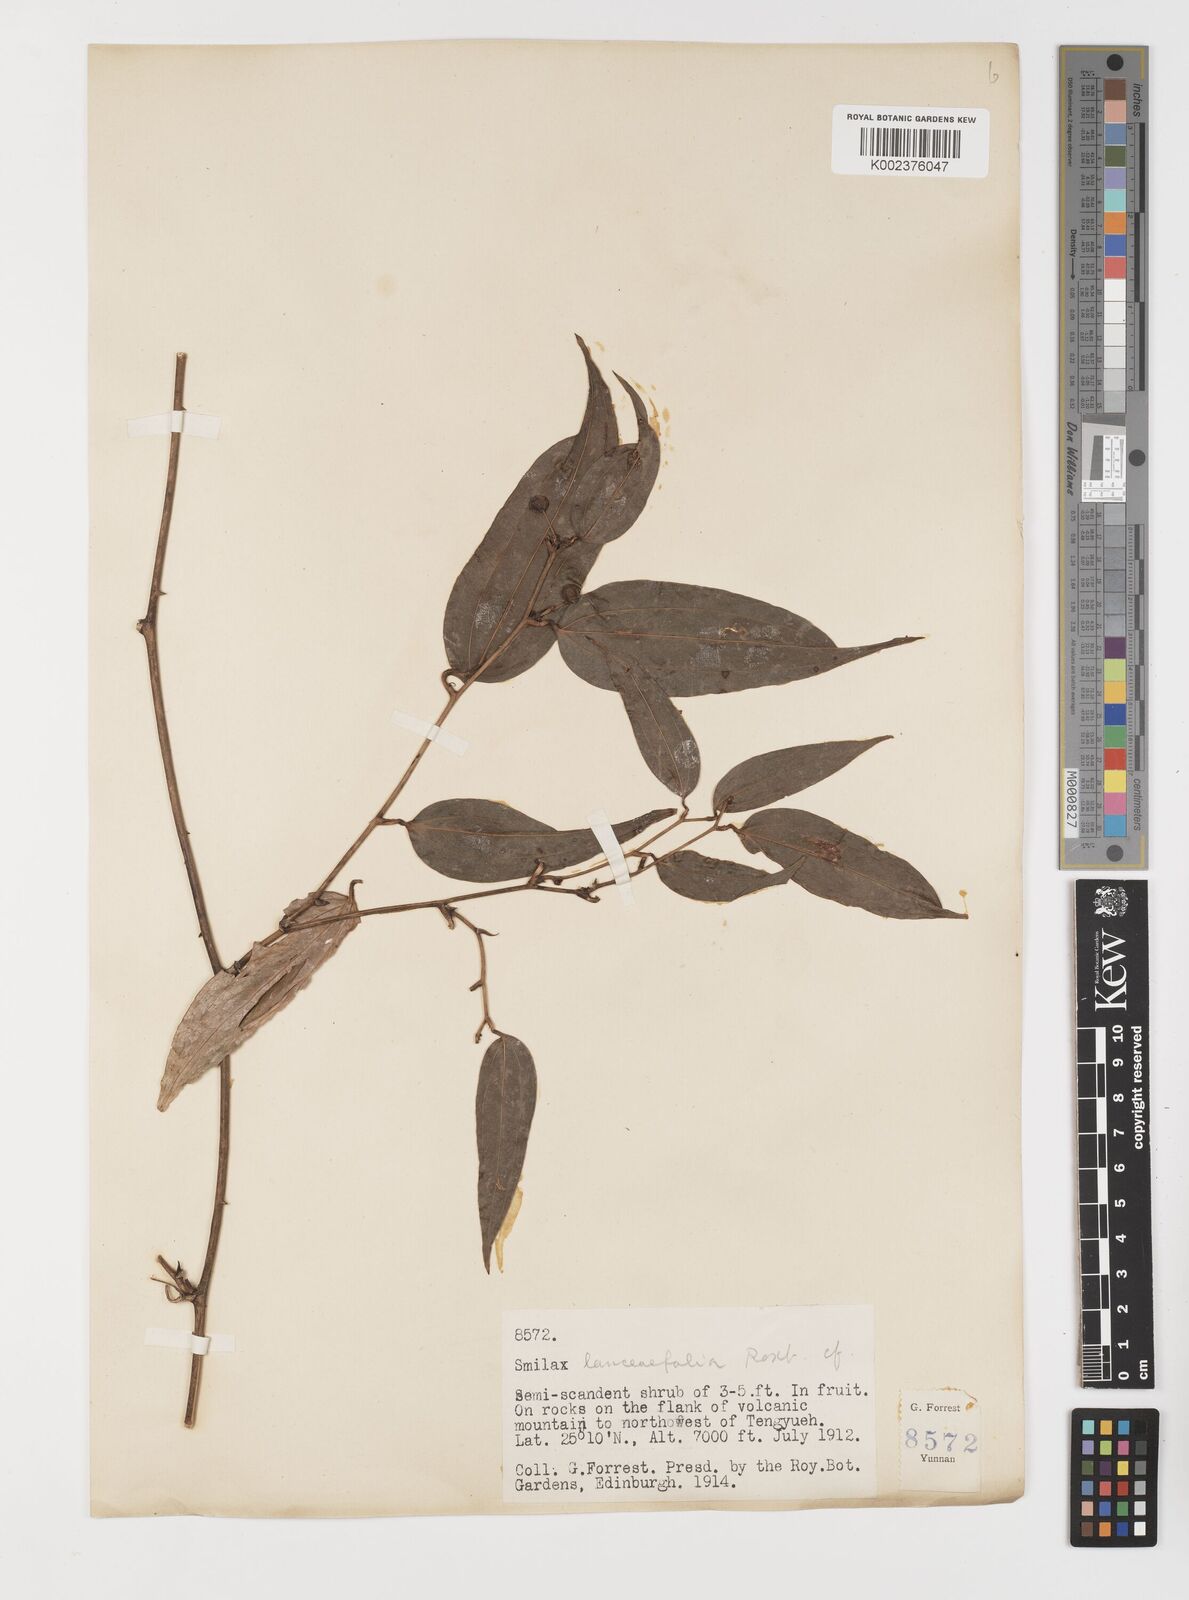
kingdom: Plantae
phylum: Tracheophyta
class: Liliopsida
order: Liliales
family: Smilacaceae
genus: Smilax
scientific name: Smilax lanceifolia
